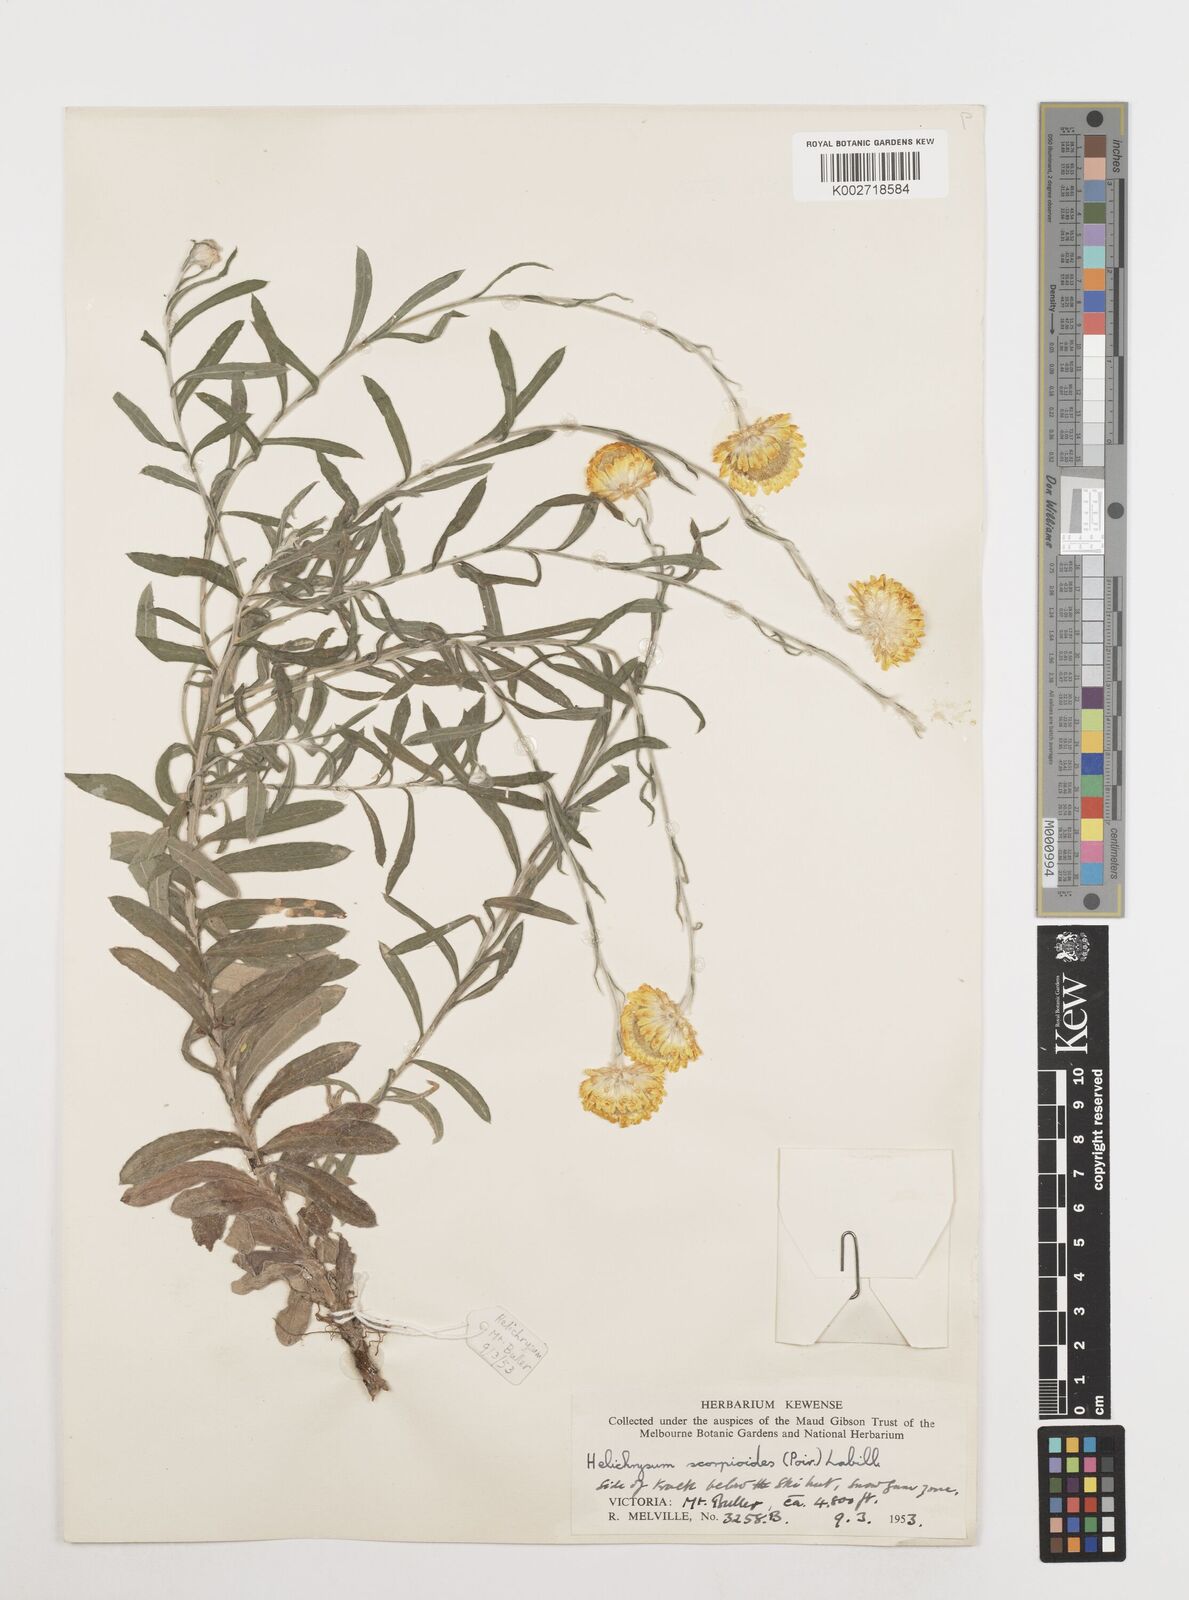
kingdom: Plantae
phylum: Tracheophyta
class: Magnoliopsida
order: Asterales
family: Asteraceae
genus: Coronidium
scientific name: Coronidium scorpioides
